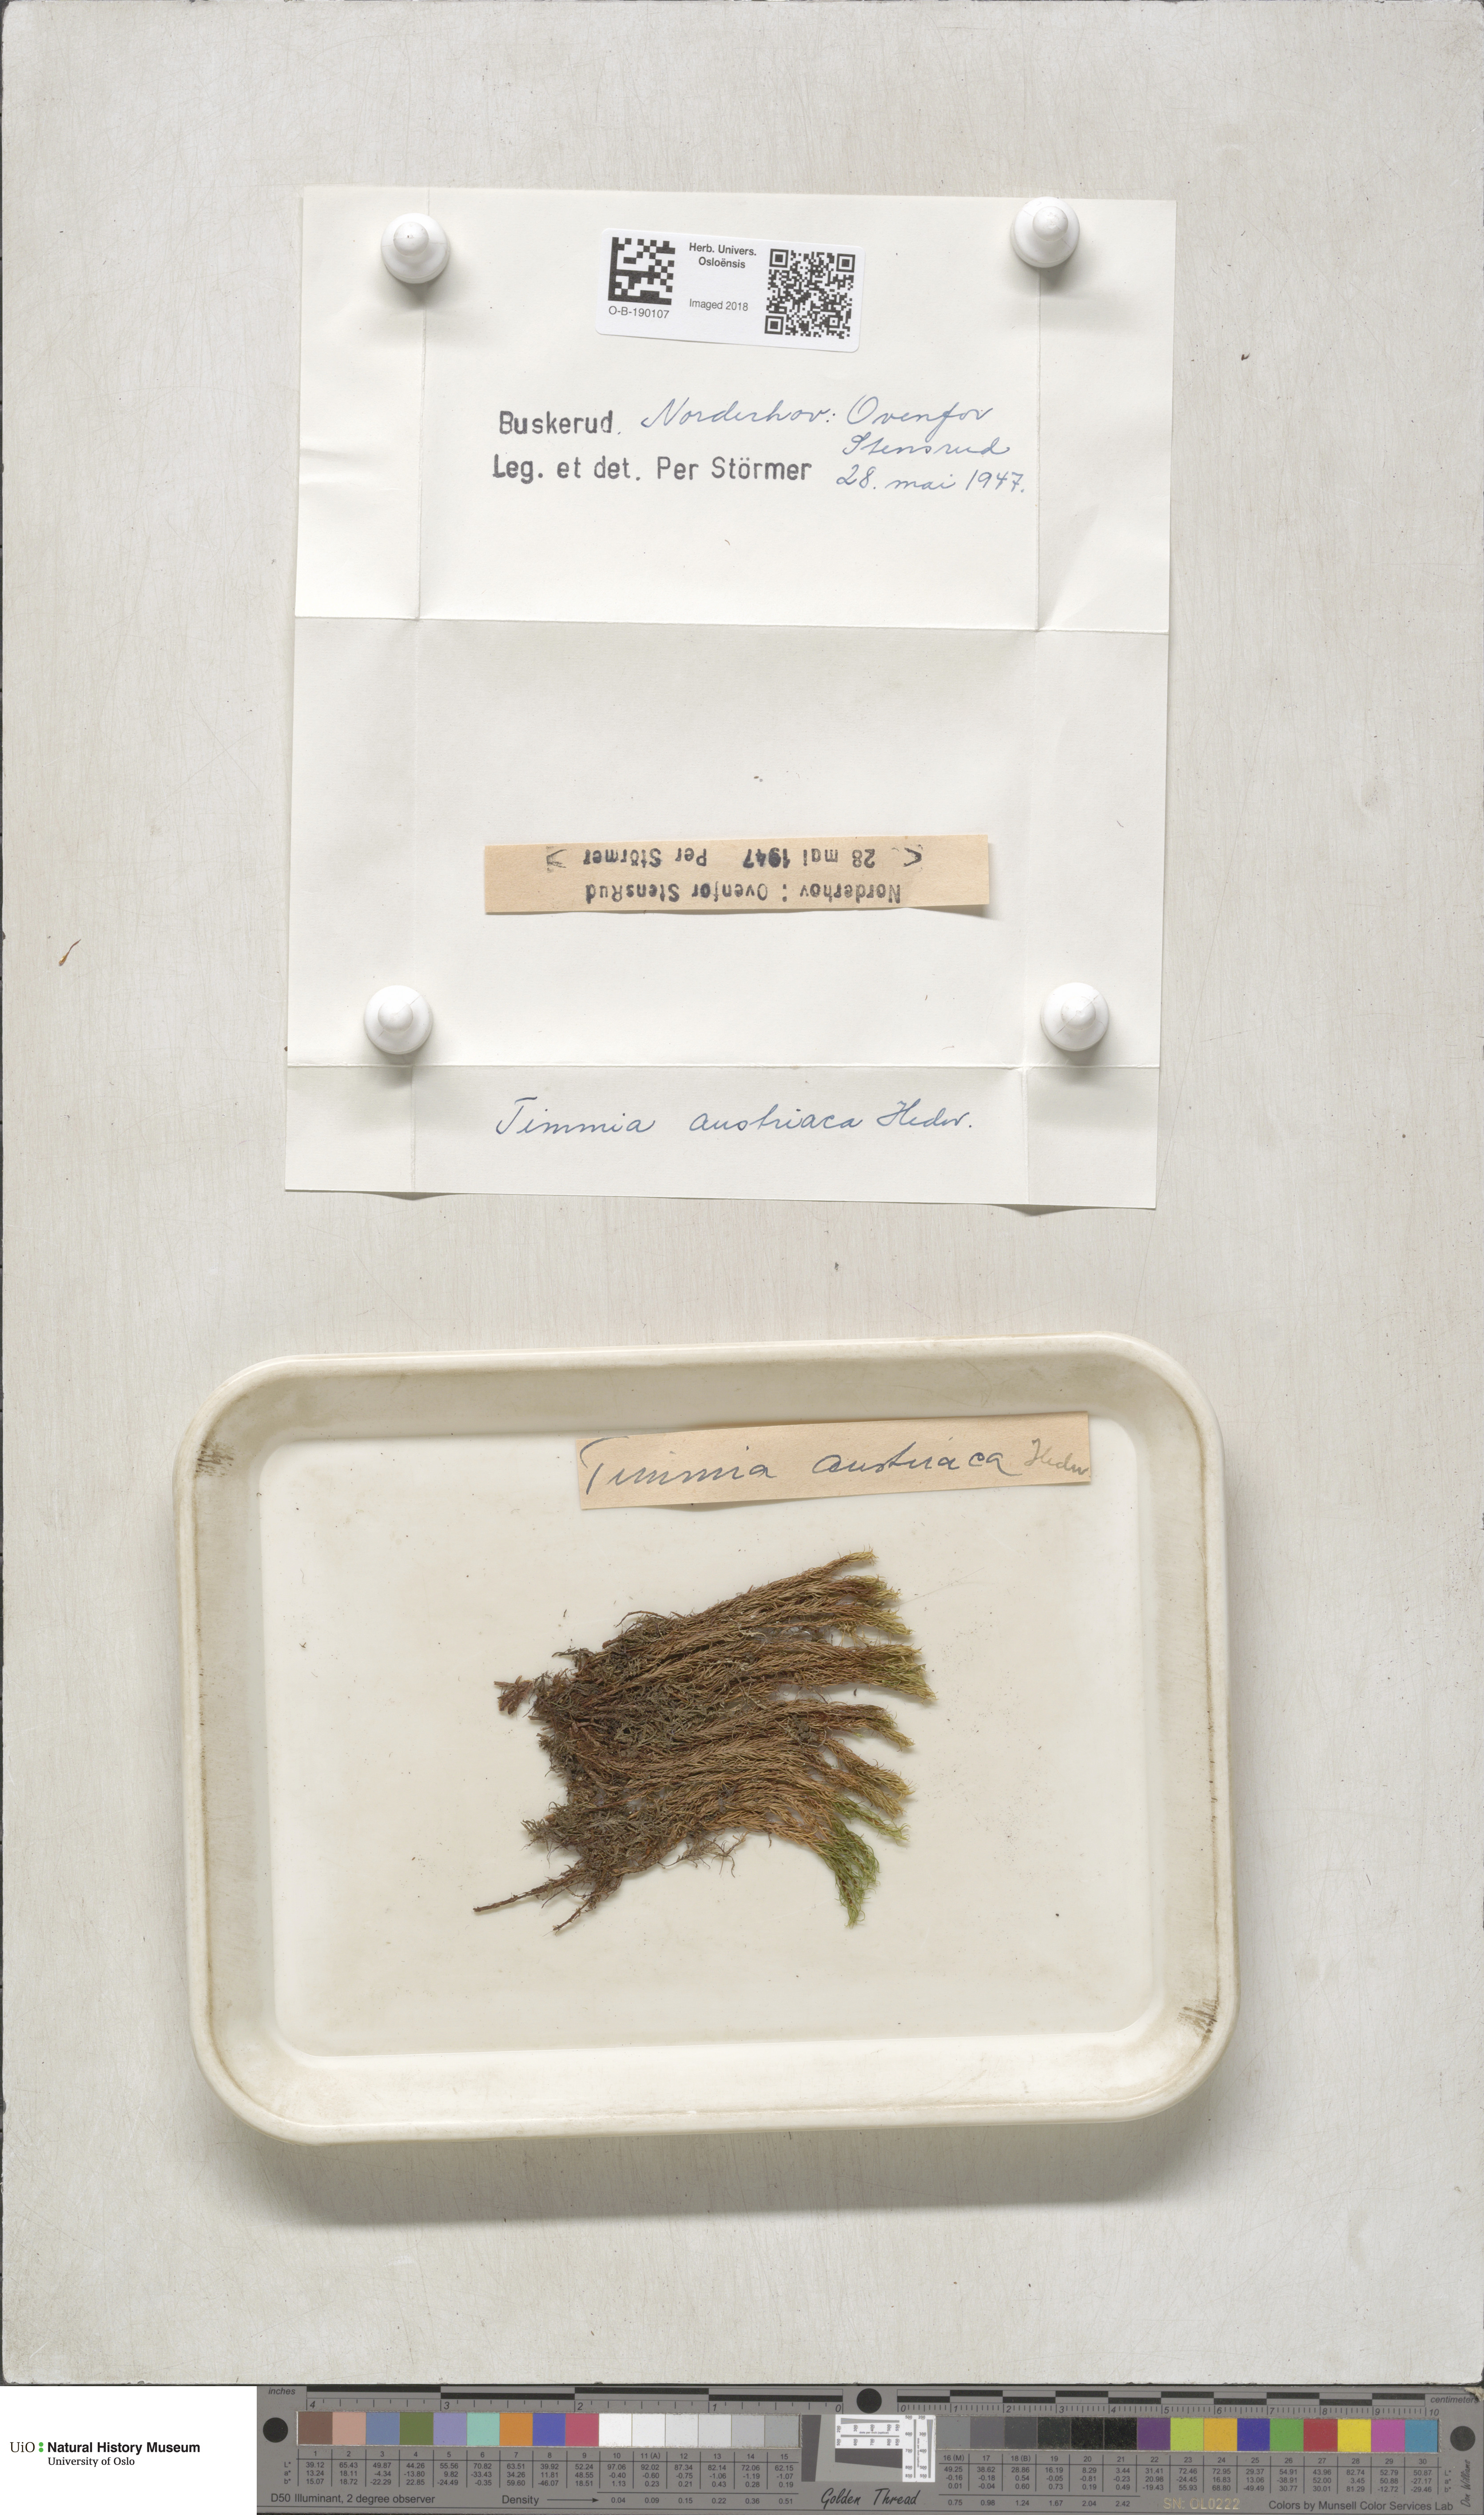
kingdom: Plantae
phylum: Bryophyta
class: Bryopsida
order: Timmiales
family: Timmiaceae
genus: Timmia
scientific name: Timmia austriaca
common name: Austrian timmia
